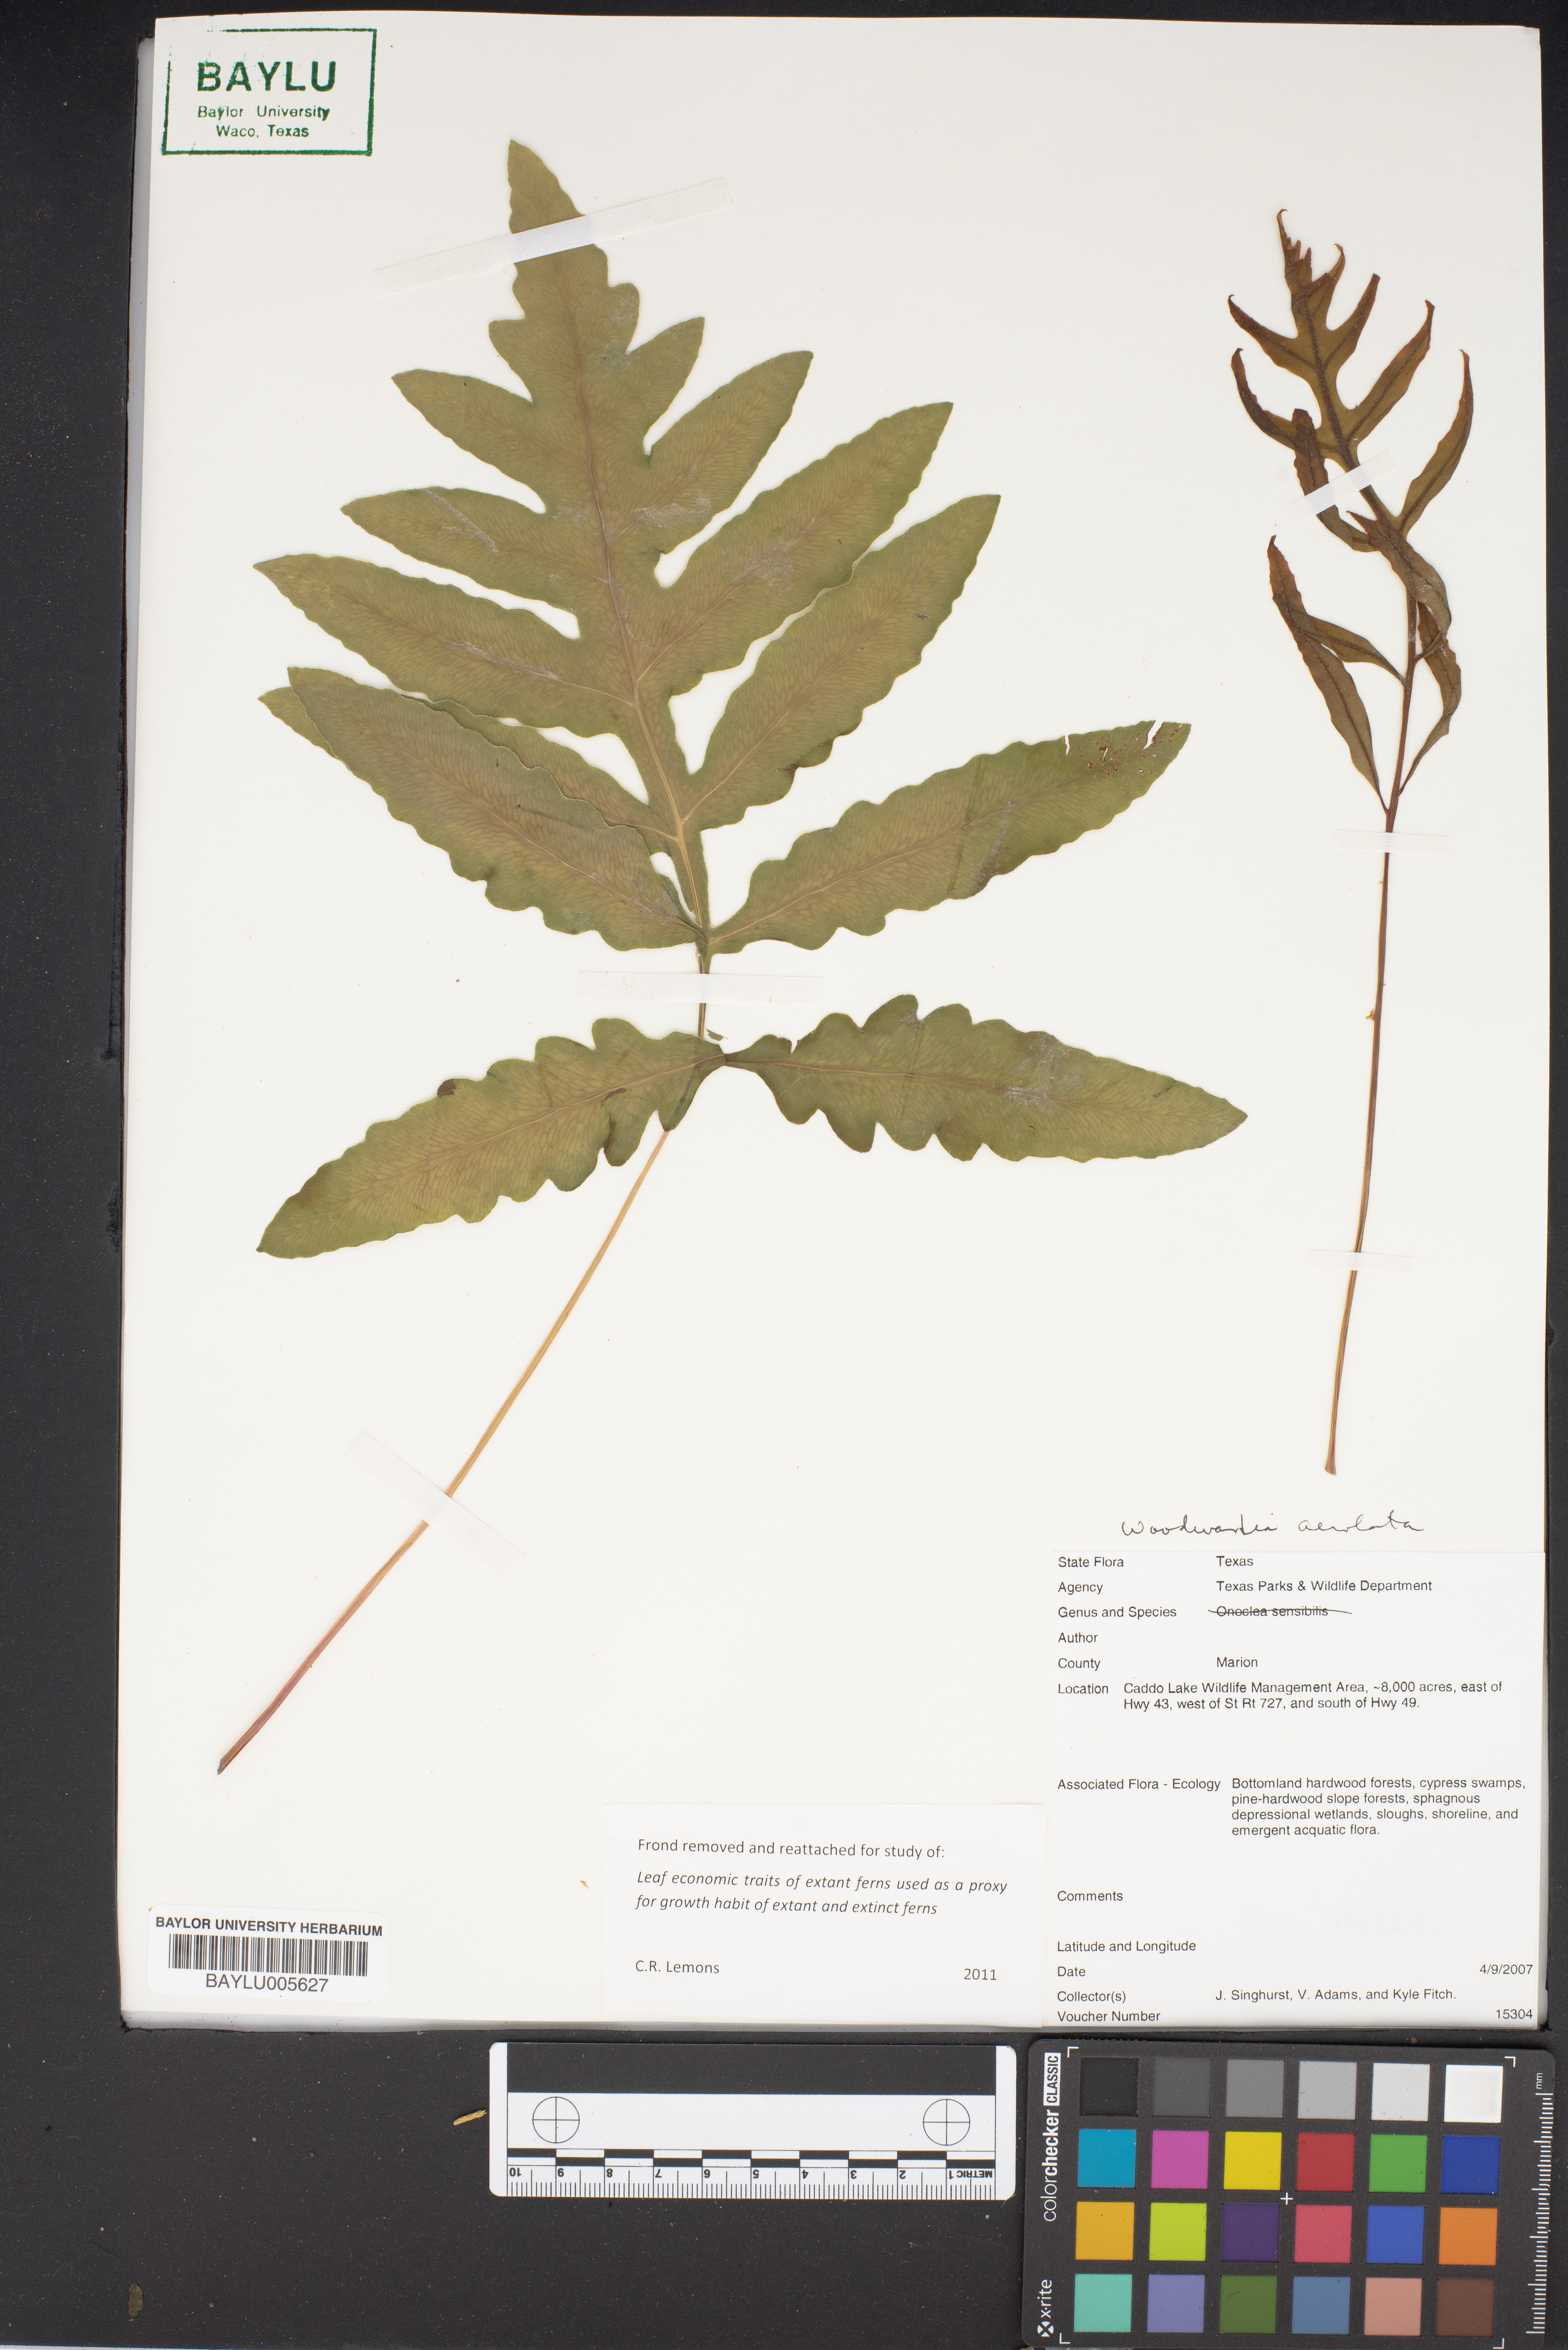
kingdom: Plantae
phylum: Tracheophyta
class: Polypodiopsida
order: Polypodiales
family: Onocleaceae
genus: Onoclea
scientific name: Onoclea sensibilis
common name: Sensitive fern
